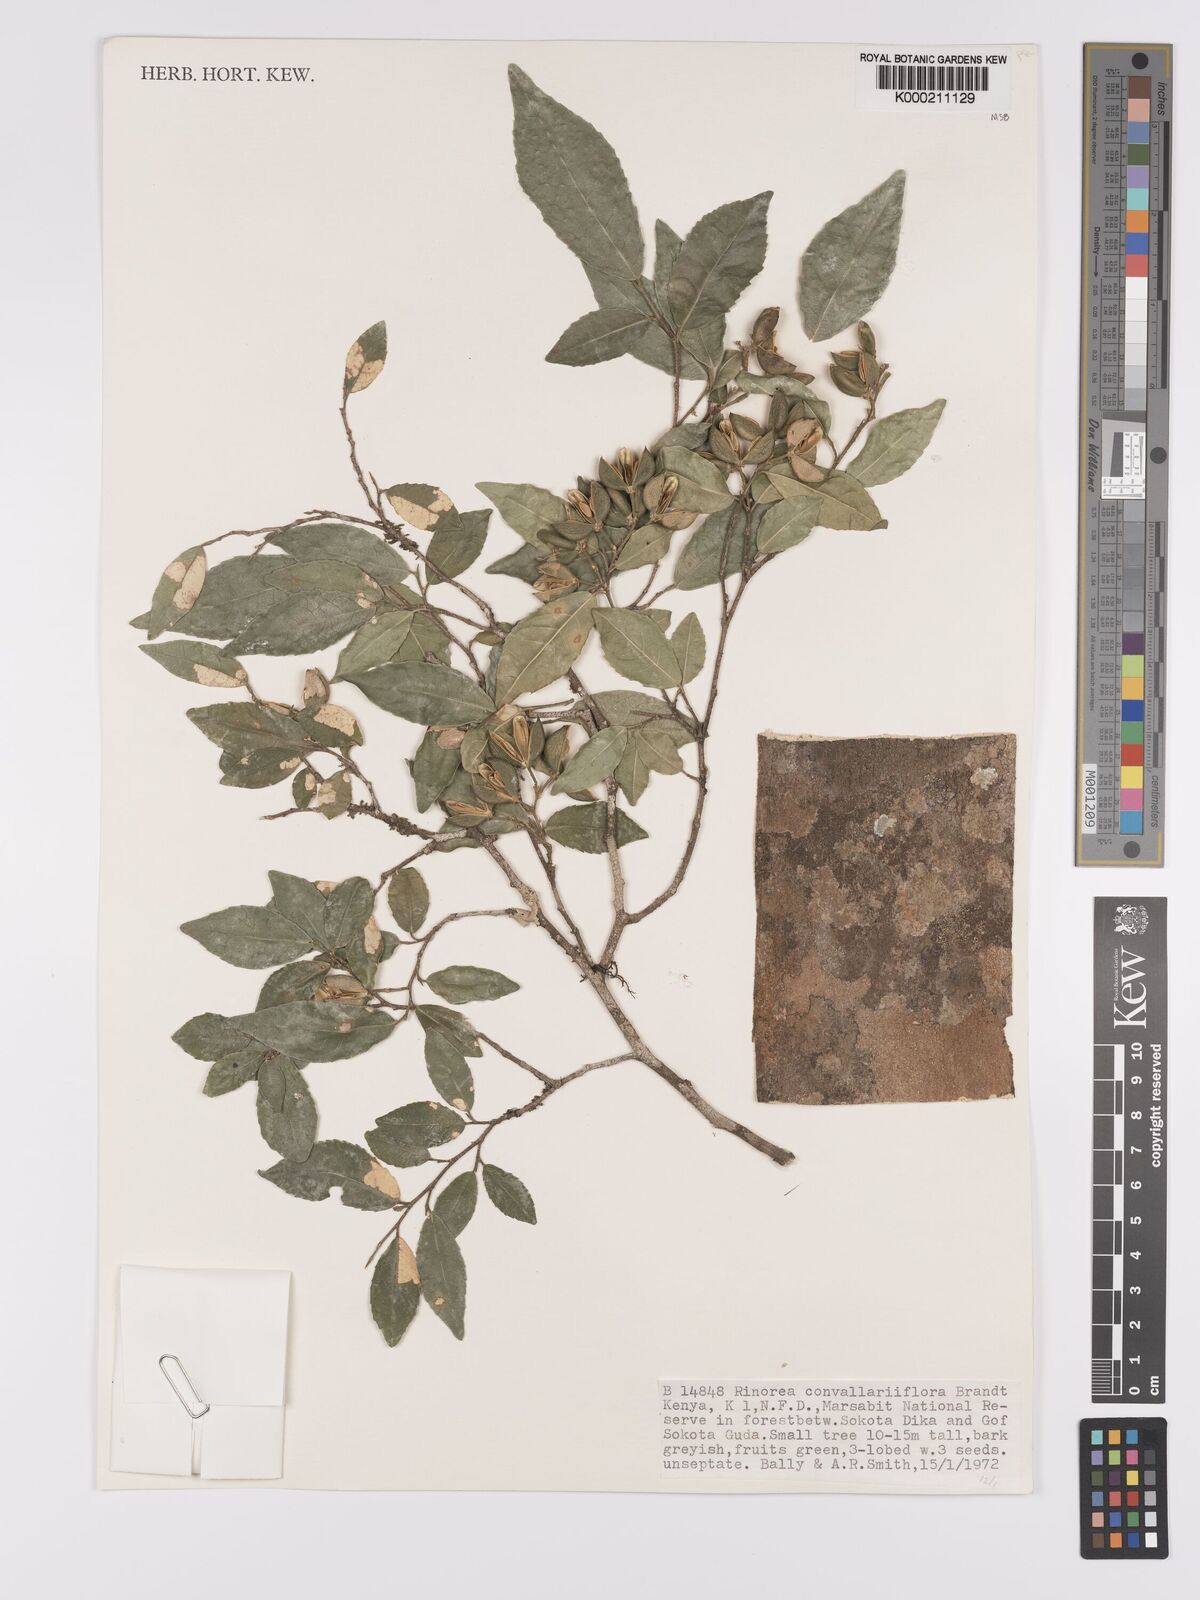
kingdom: Plantae
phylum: Tracheophyta
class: Magnoliopsida
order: Malpighiales
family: Violaceae
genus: Rinorea
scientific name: Rinorea convallarioides
